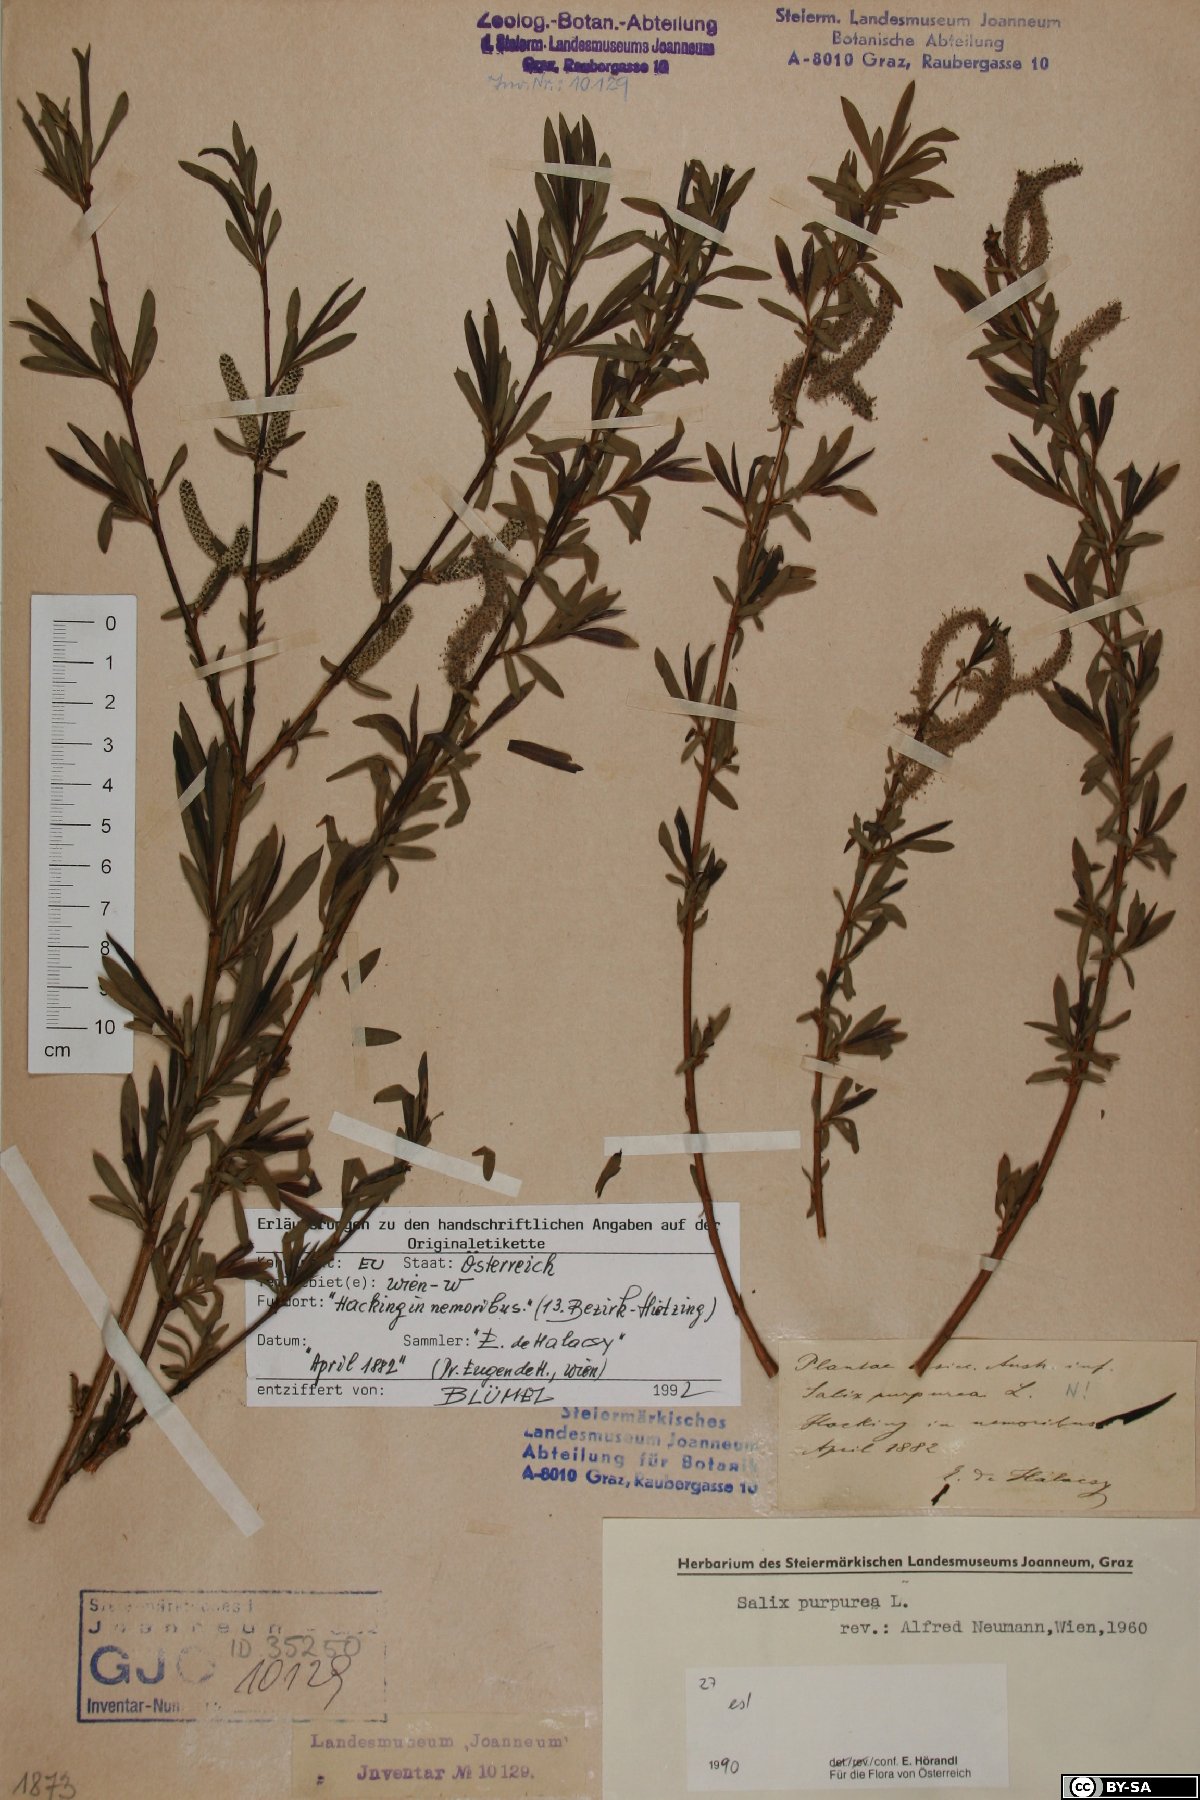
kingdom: Plantae
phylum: Tracheophyta
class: Magnoliopsida
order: Malpighiales
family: Salicaceae
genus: Salix
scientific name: Salix purpurea
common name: Purple willow
